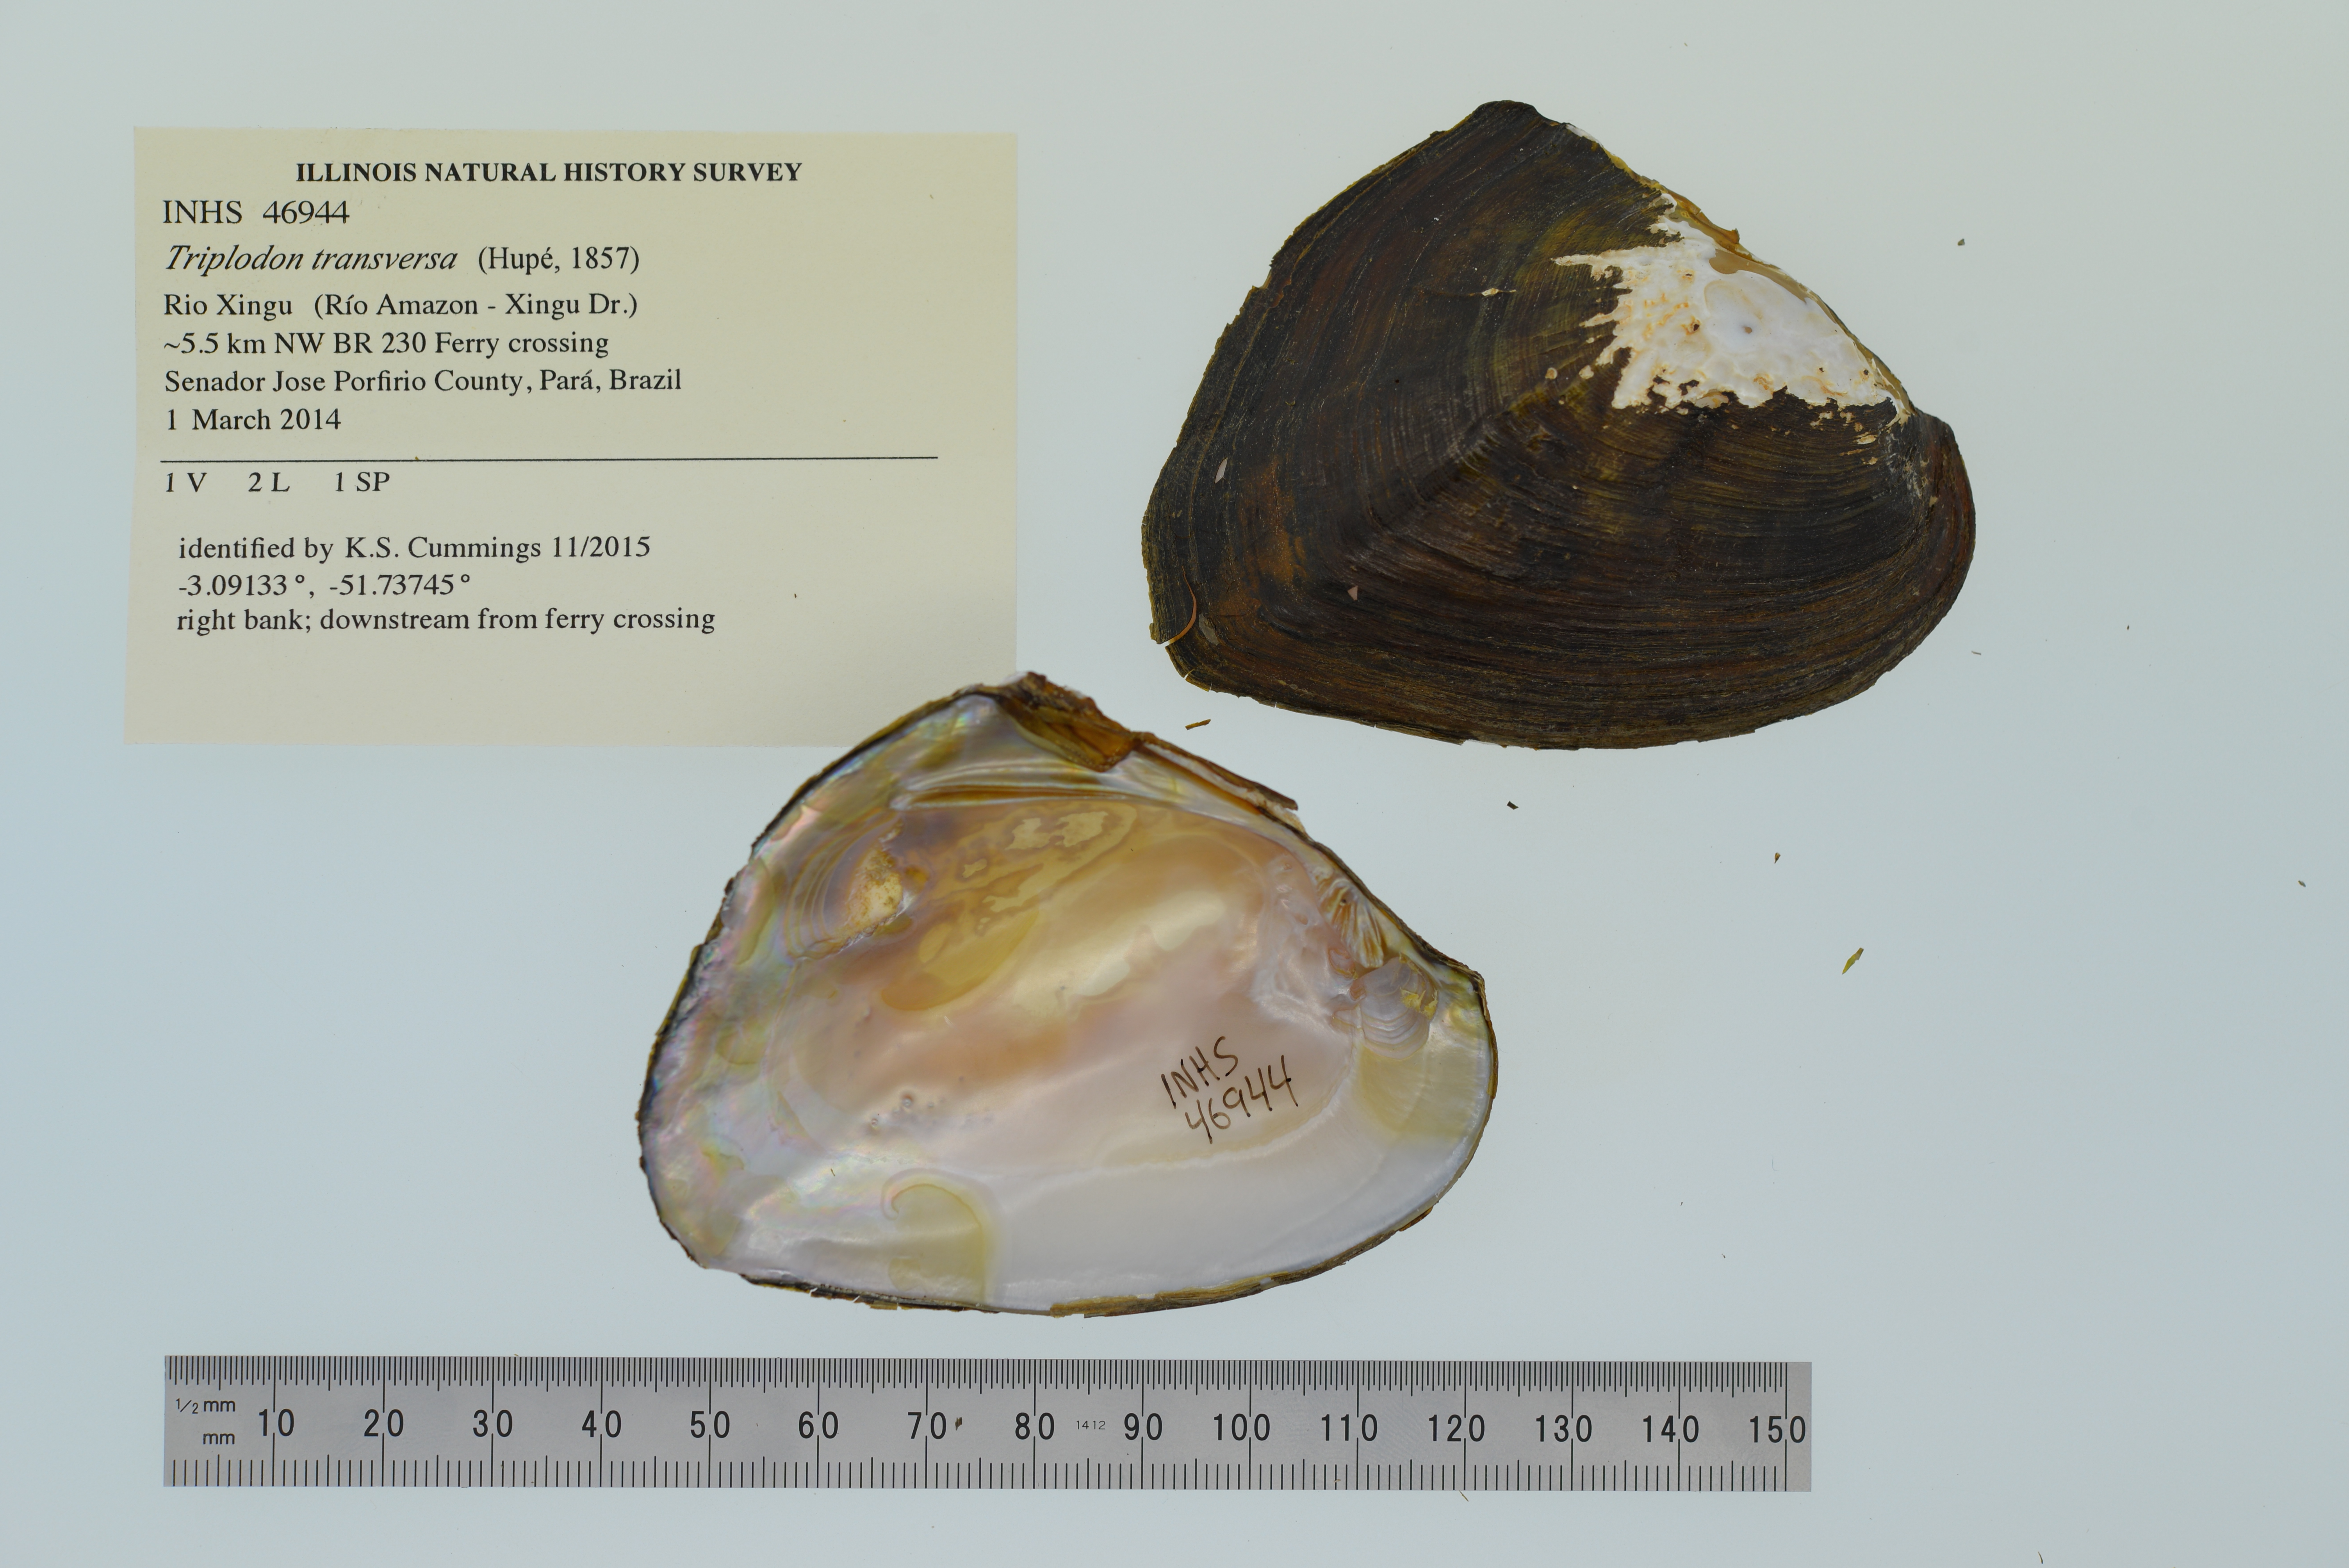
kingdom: Animalia
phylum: Mollusca
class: Bivalvia
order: Unionida
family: Hyriidae
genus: Triplodon
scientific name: Triplodon
